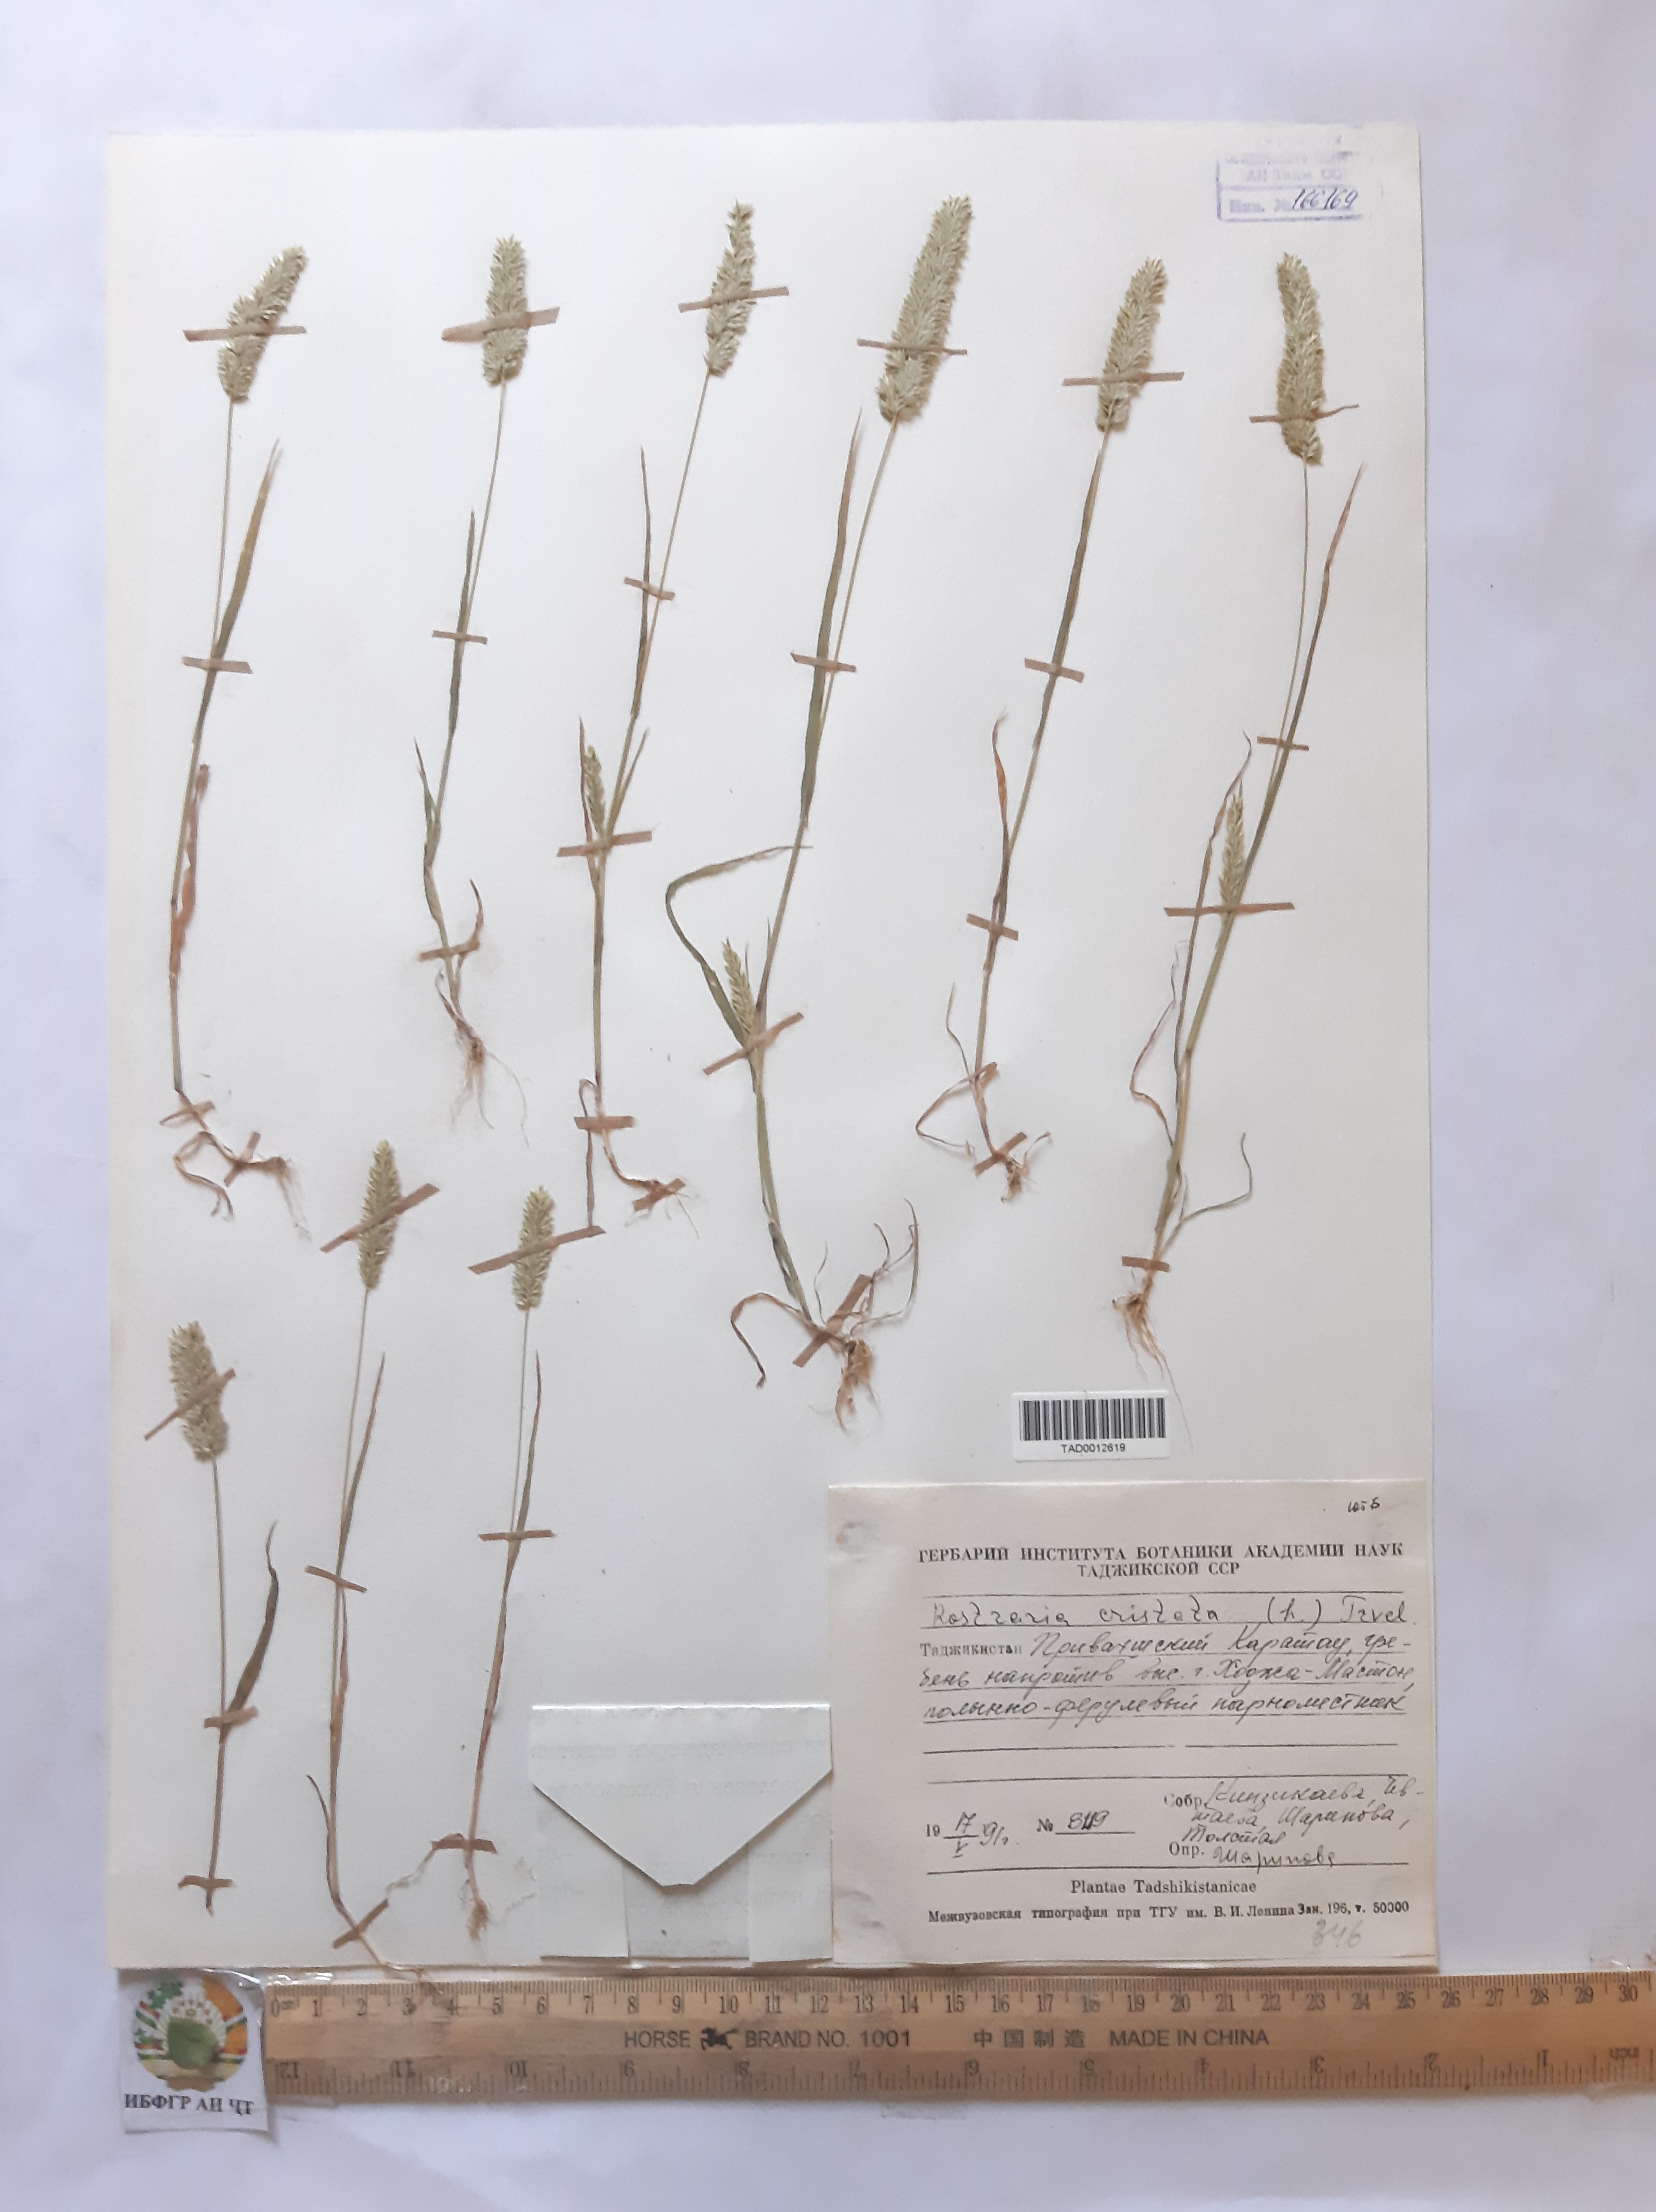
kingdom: Plantae
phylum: Tracheophyta
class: Liliopsida
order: Poales
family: Poaceae
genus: Rostraria
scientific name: Rostraria cristata
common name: Mediterranean hair-grass
